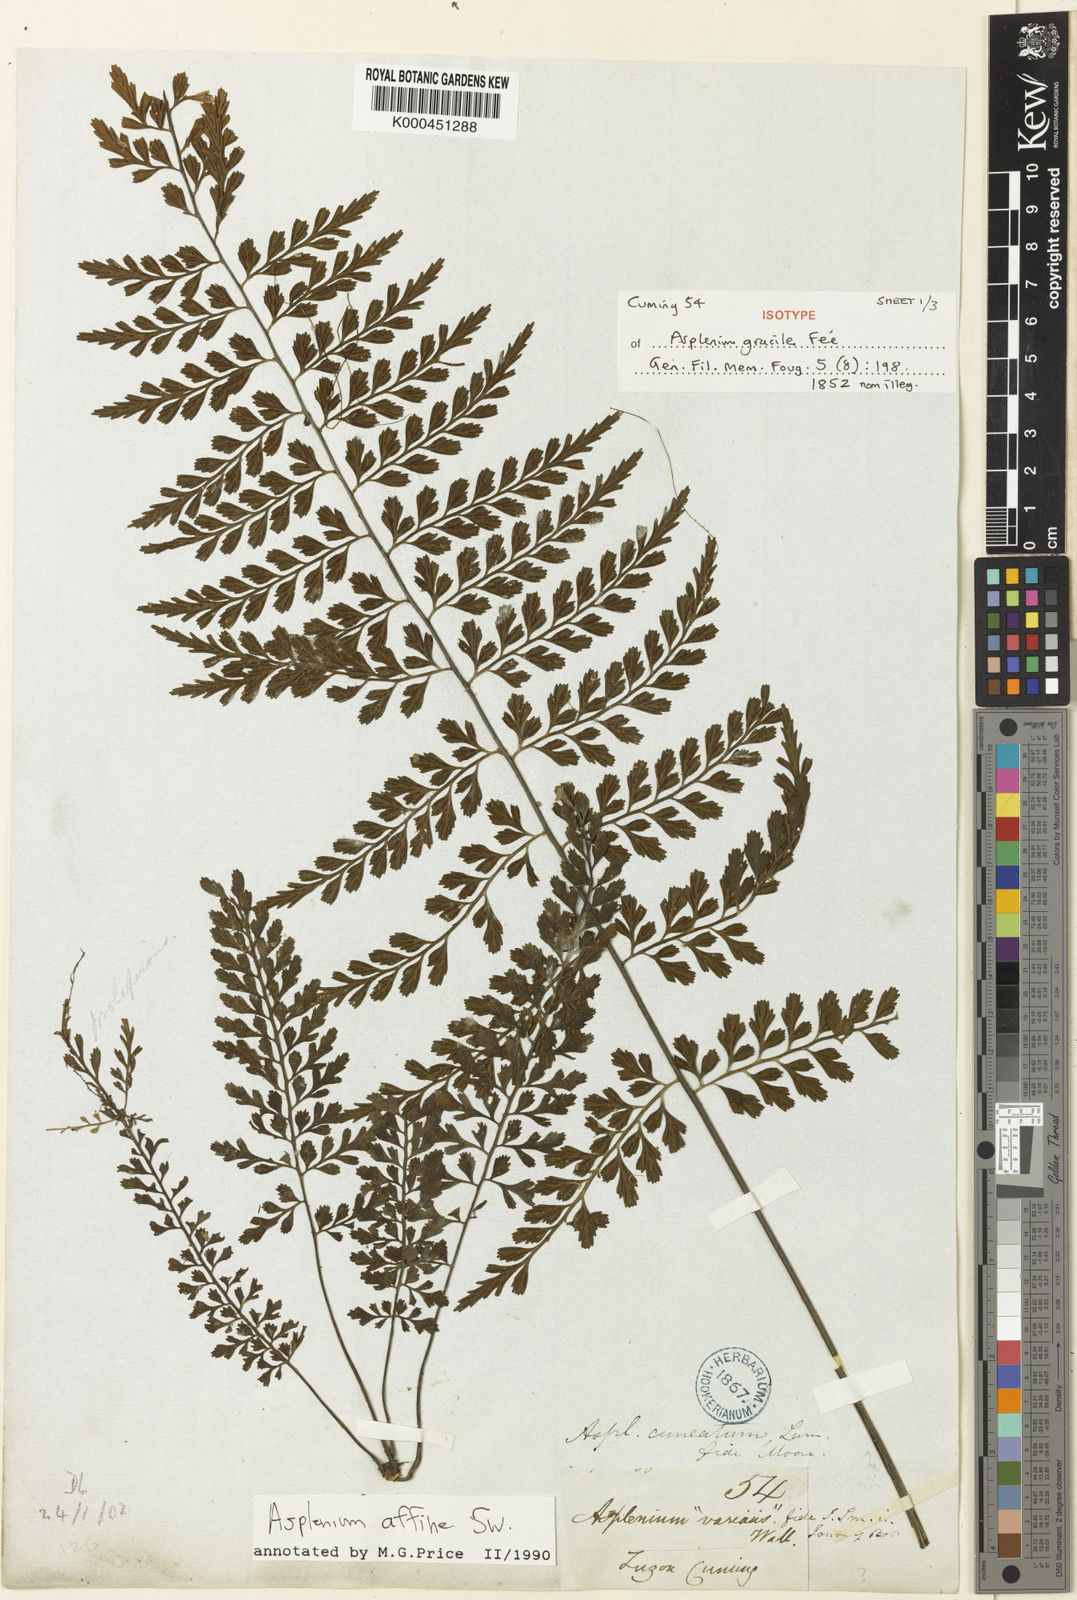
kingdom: Plantae
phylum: Tracheophyta
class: Polypodiopsida
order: Polypodiales
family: Aspleniaceae
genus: Asplenium
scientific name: Asplenium baileyanum
